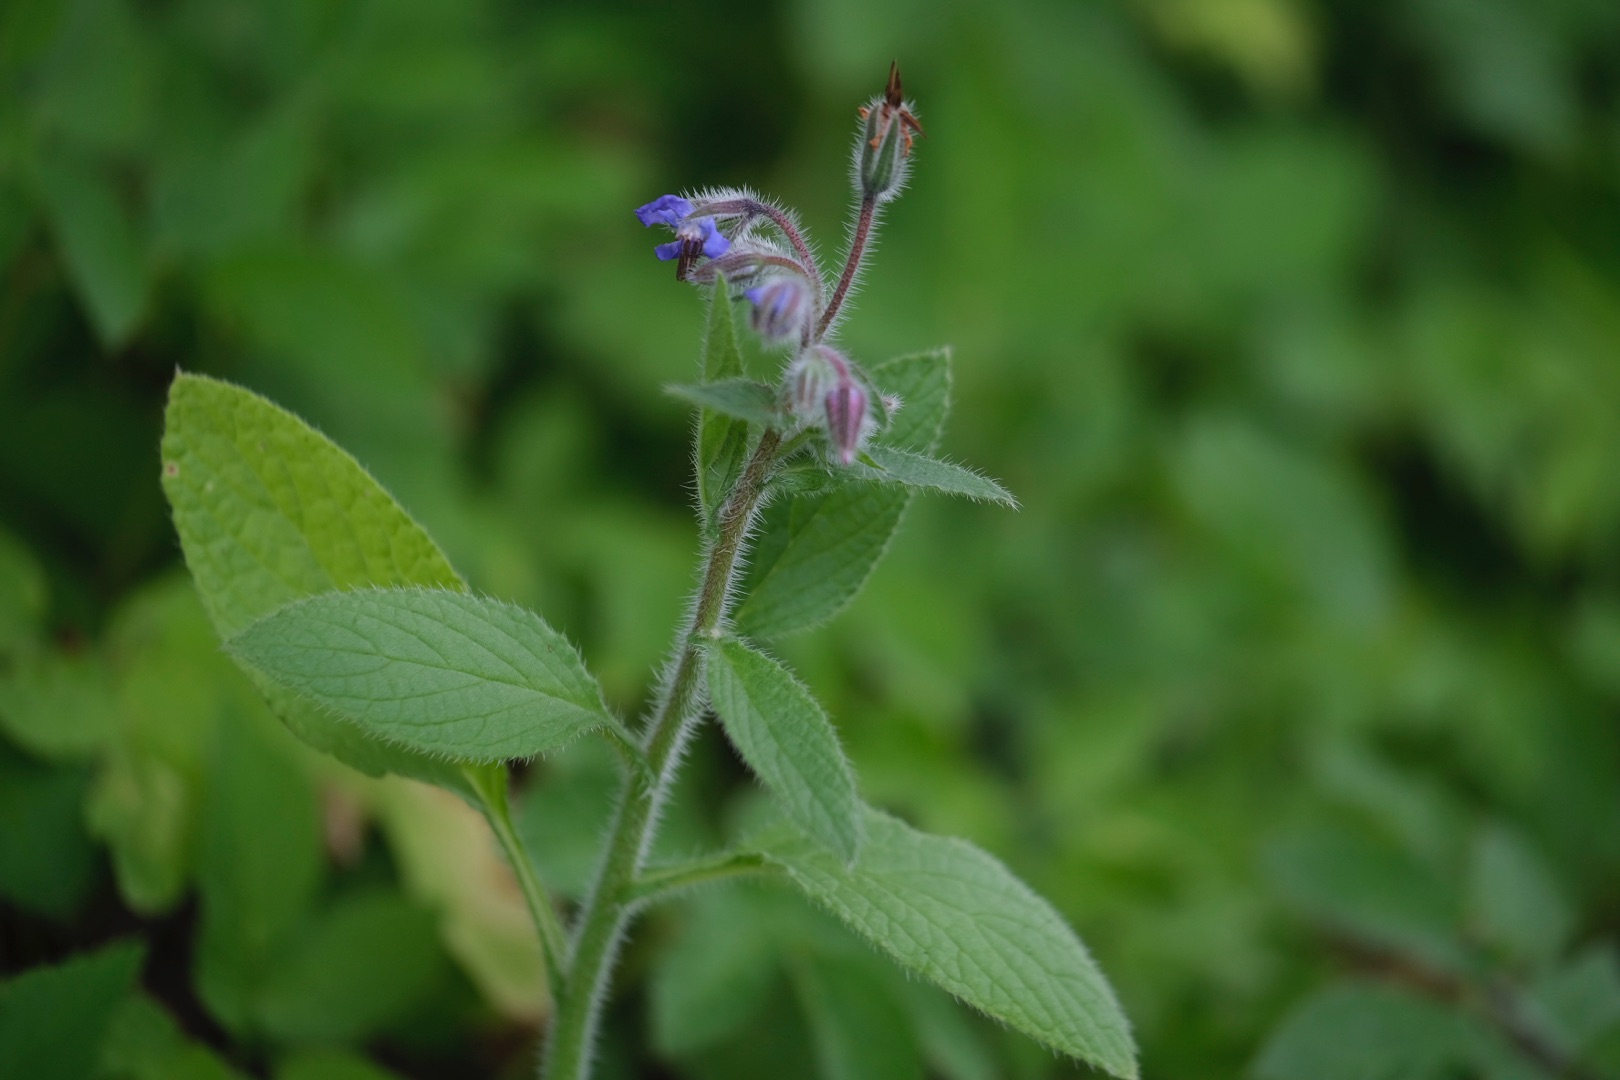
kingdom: Plantae
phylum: Tracheophyta
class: Magnoliopsida
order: Boraginales
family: Boraginaceae
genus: Borago
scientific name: Borago officinalis
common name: Hjulkrone
